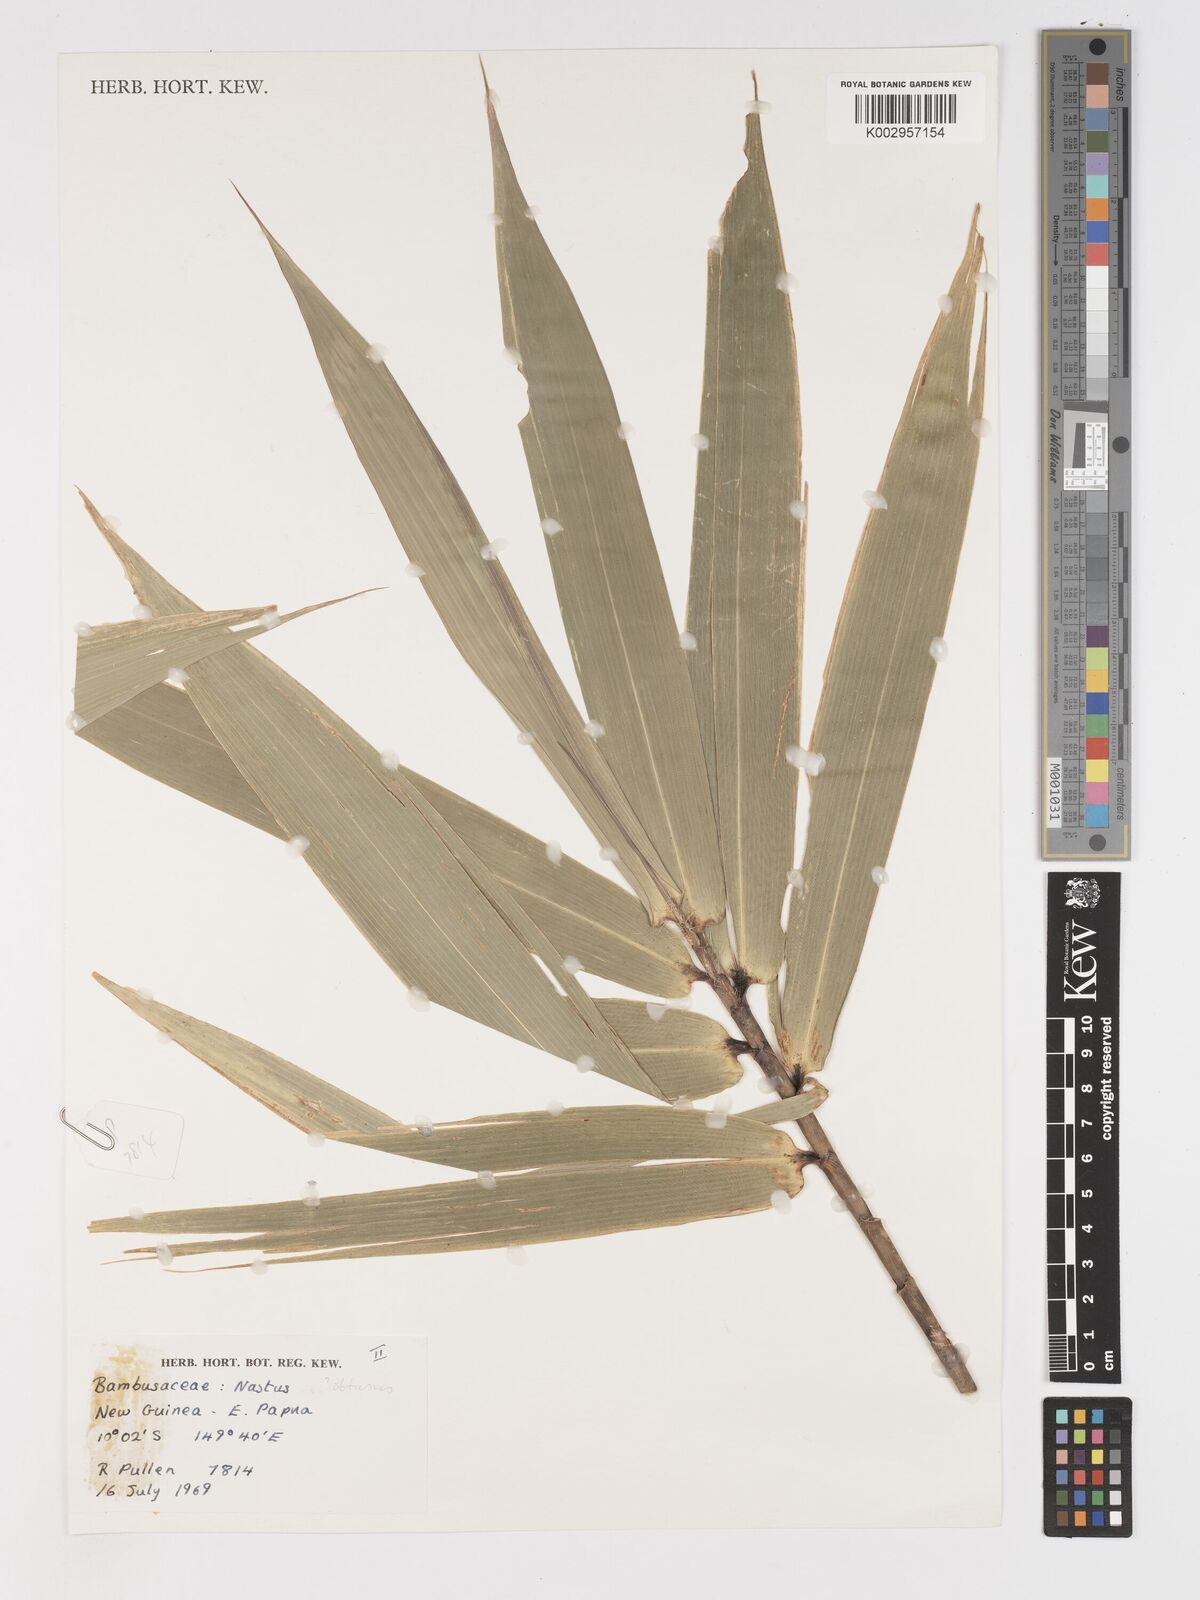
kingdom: Plantae
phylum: Tracheophyta
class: Liliopsida
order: Poales
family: Poaceae
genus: Chloothamnus
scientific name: Chloothamnus
